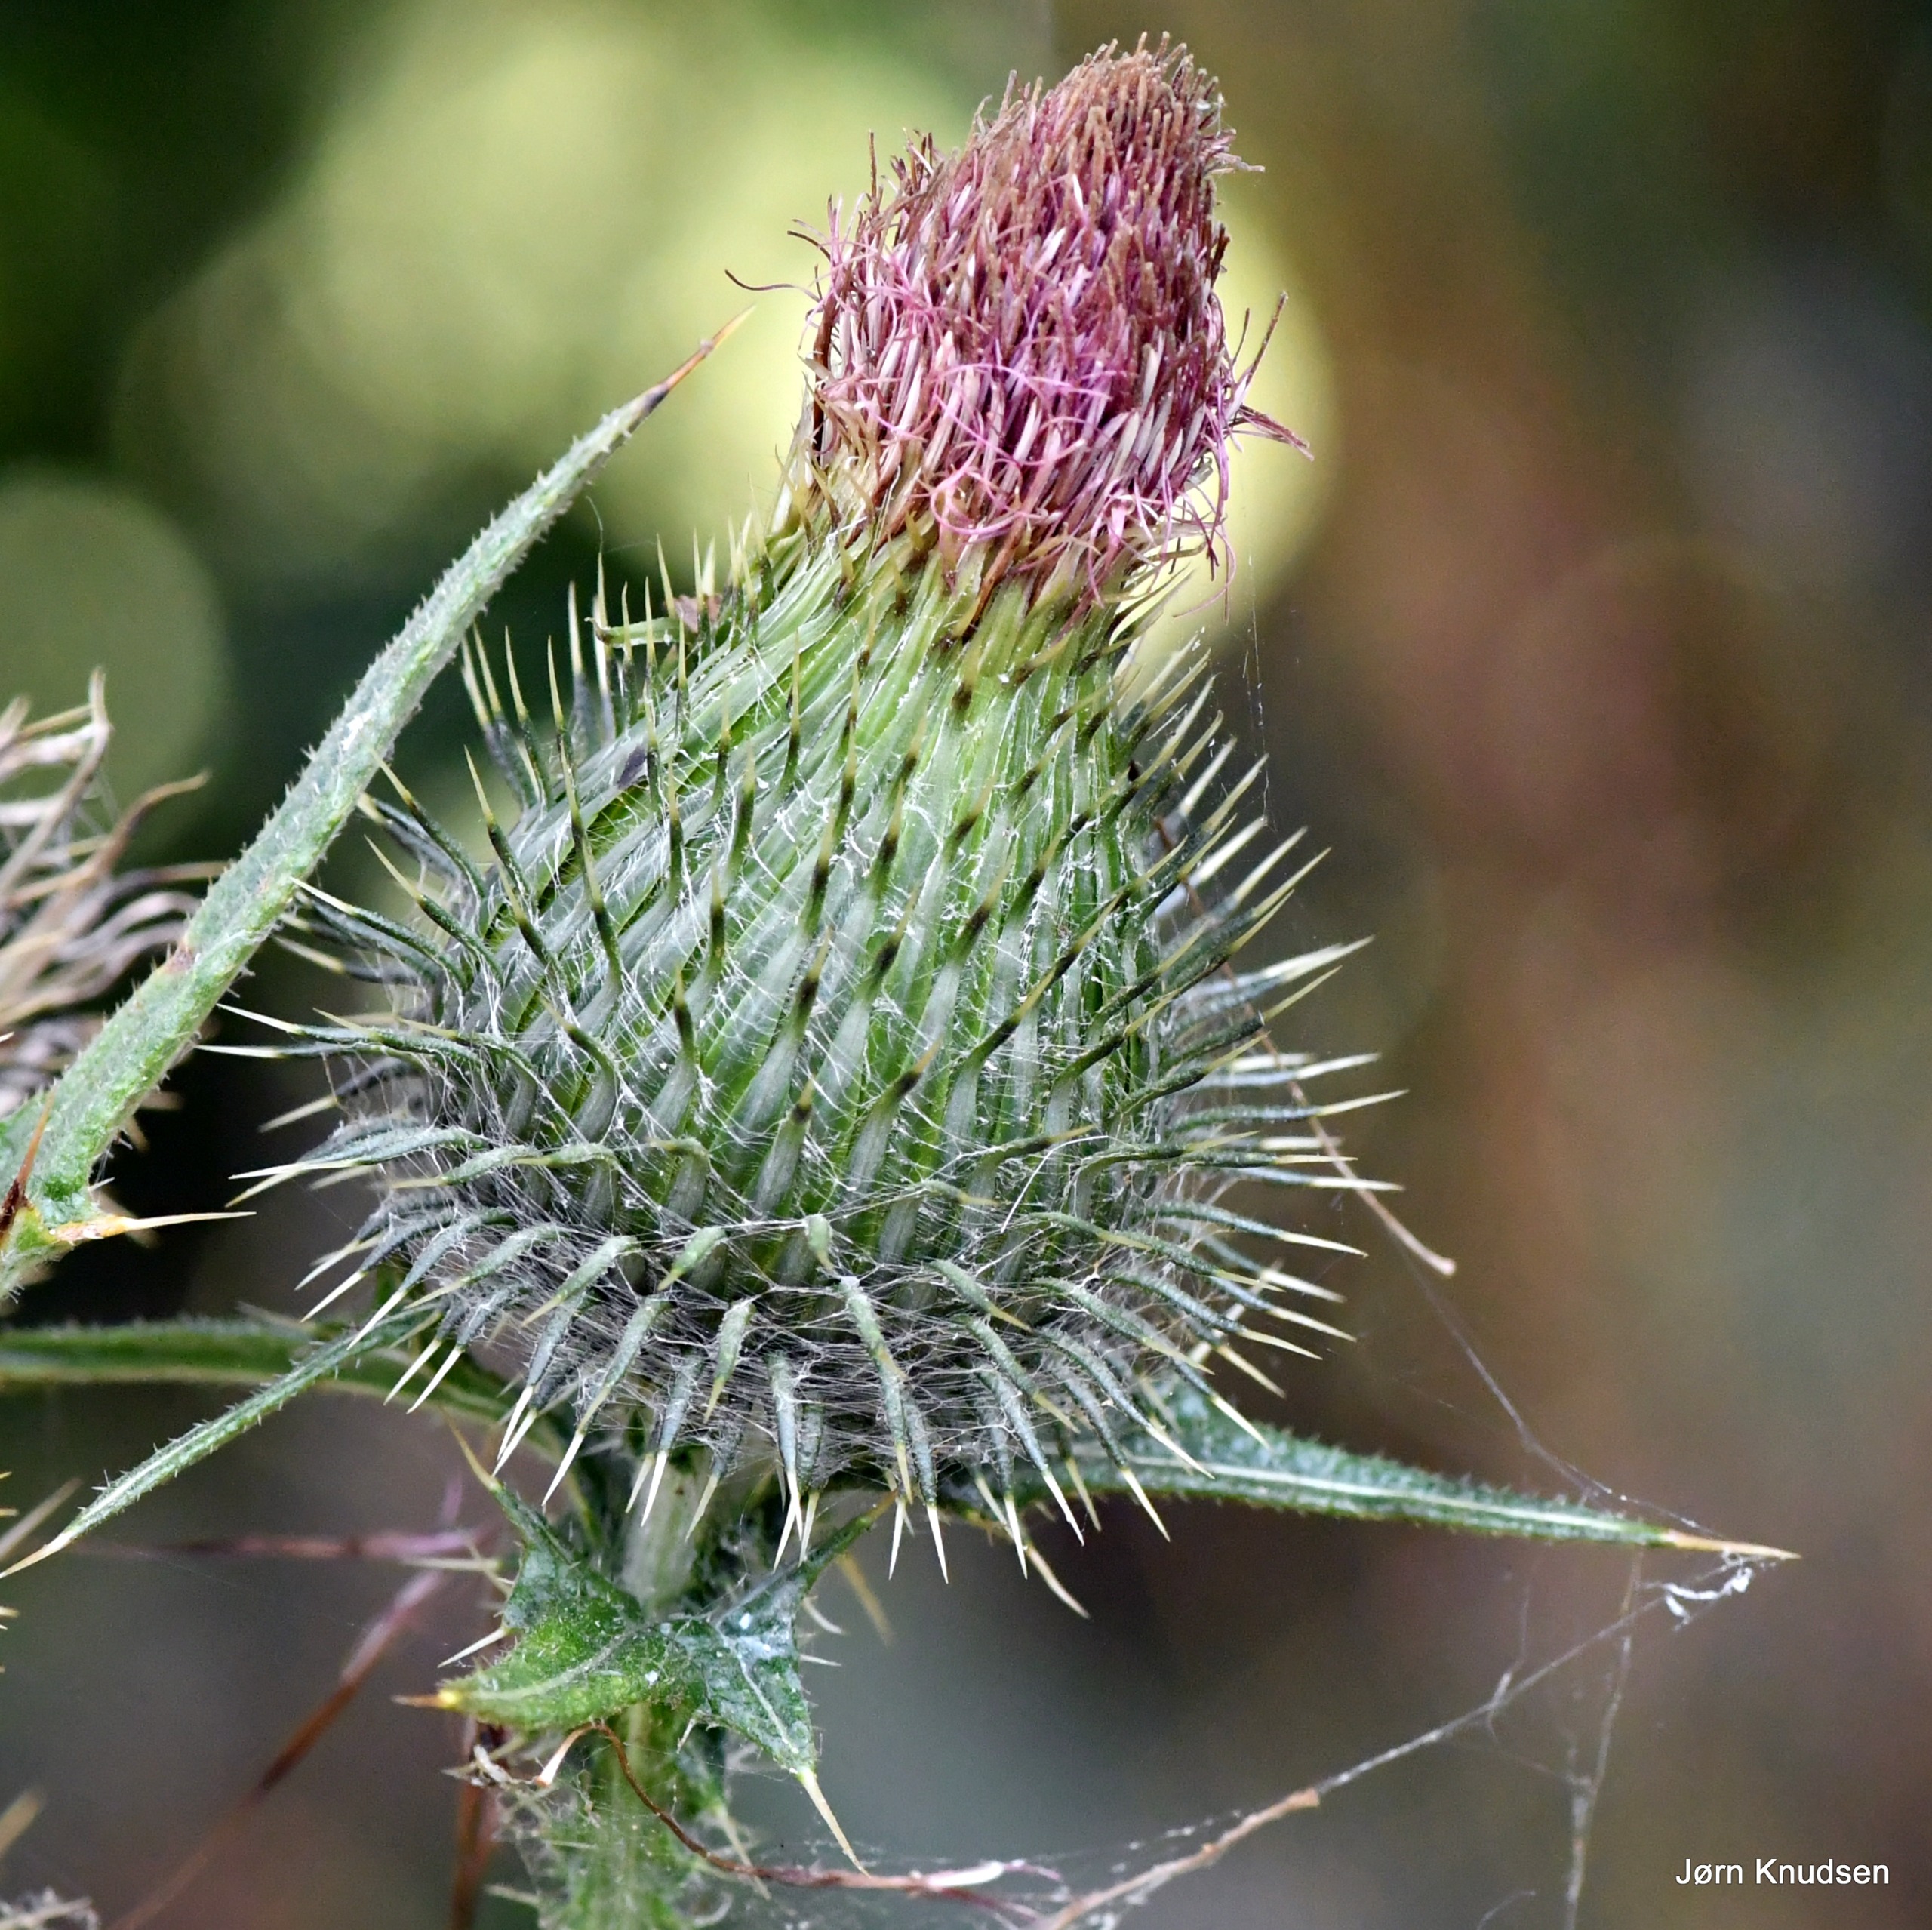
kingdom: Plantae
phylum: Tracheophyta
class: Magnoliopsida
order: Asterales
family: Asteraceae
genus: Cirsium
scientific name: Cirsium vulgare
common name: Horse-tidsel
